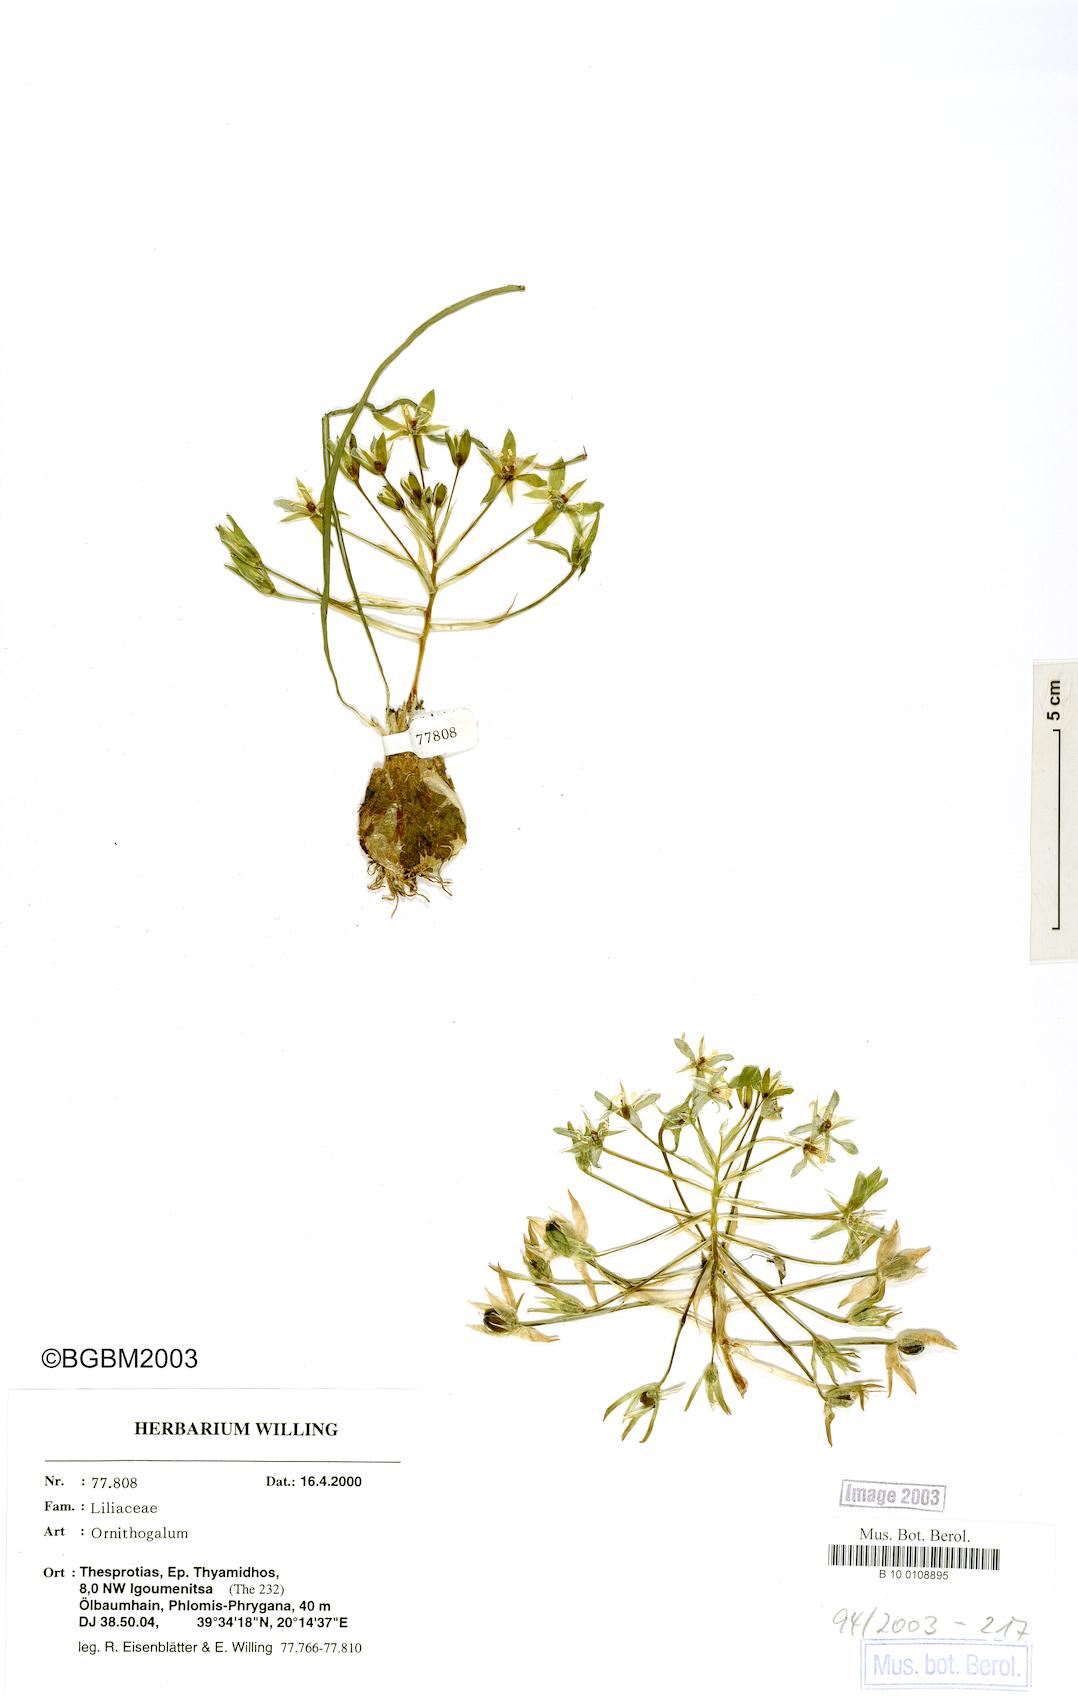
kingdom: Plantae
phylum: Tracheophyta
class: Liliopsida
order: Asparagales
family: Asparagaceae
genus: Ornithogalum
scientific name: Ornithogalum
